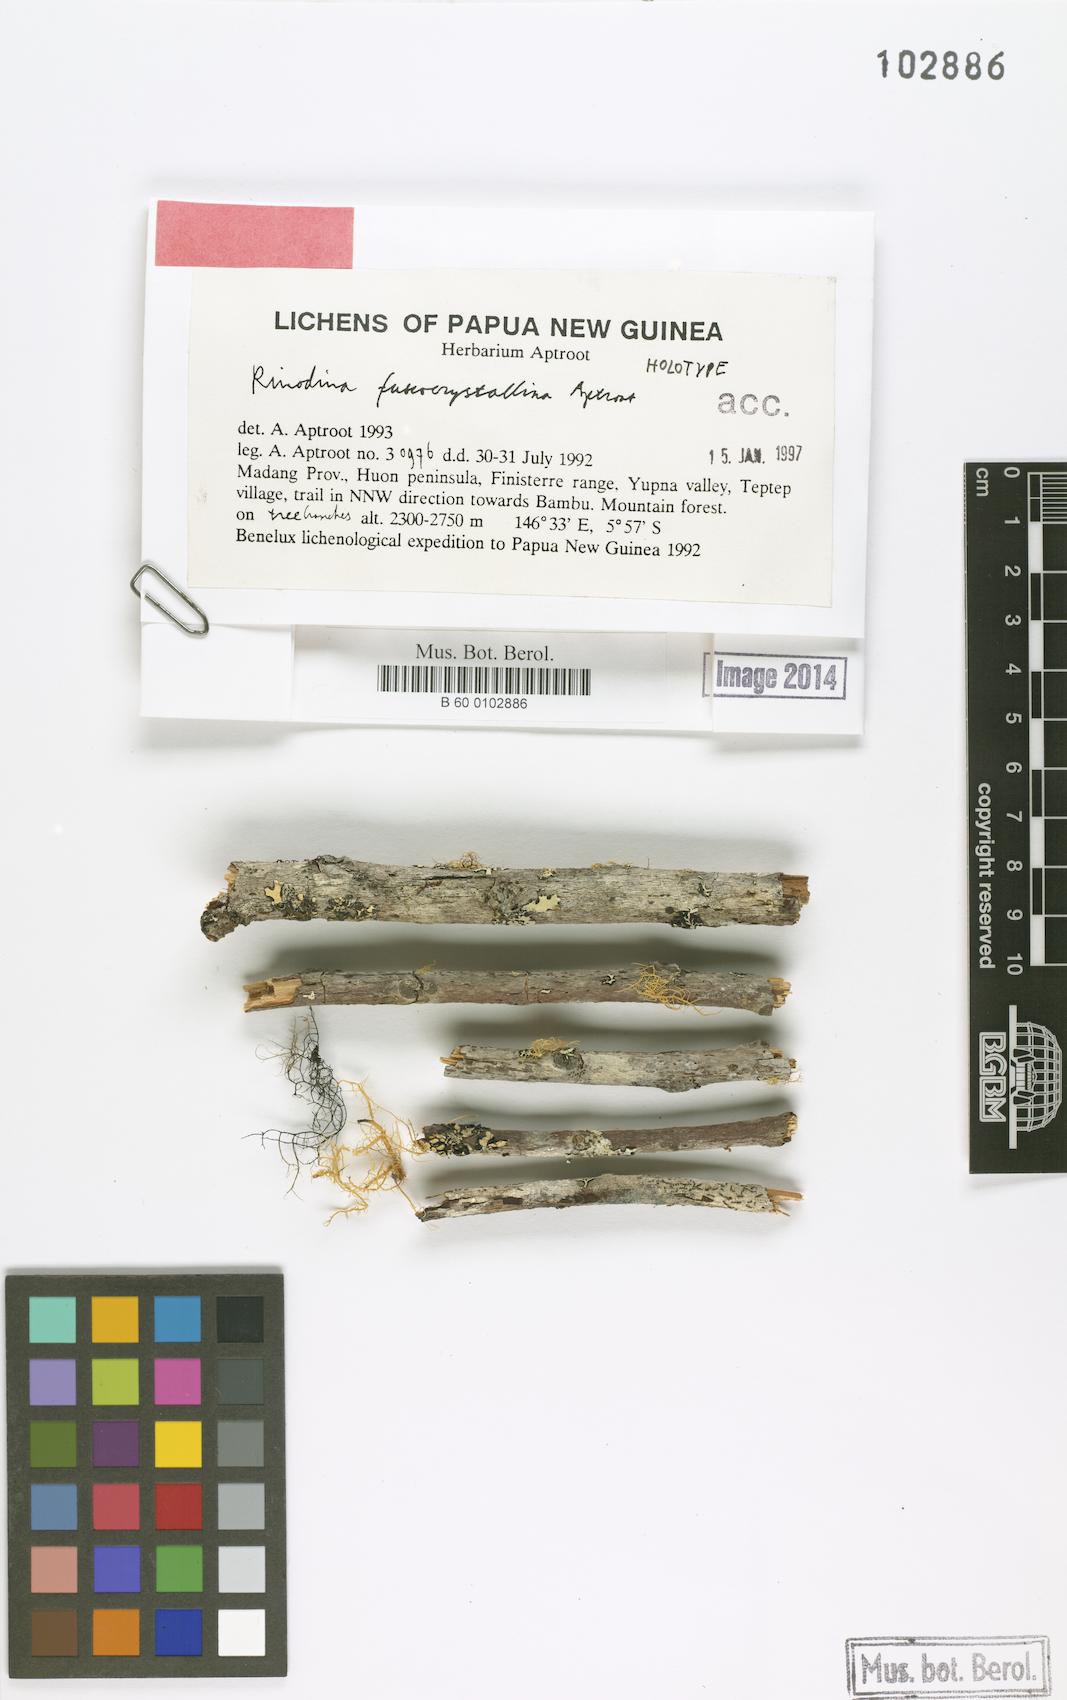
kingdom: Fungi
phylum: Ascomycota
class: Lecanoromycetes
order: Caliciales
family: Physciaceae
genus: Rinodina
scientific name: Rinodina
